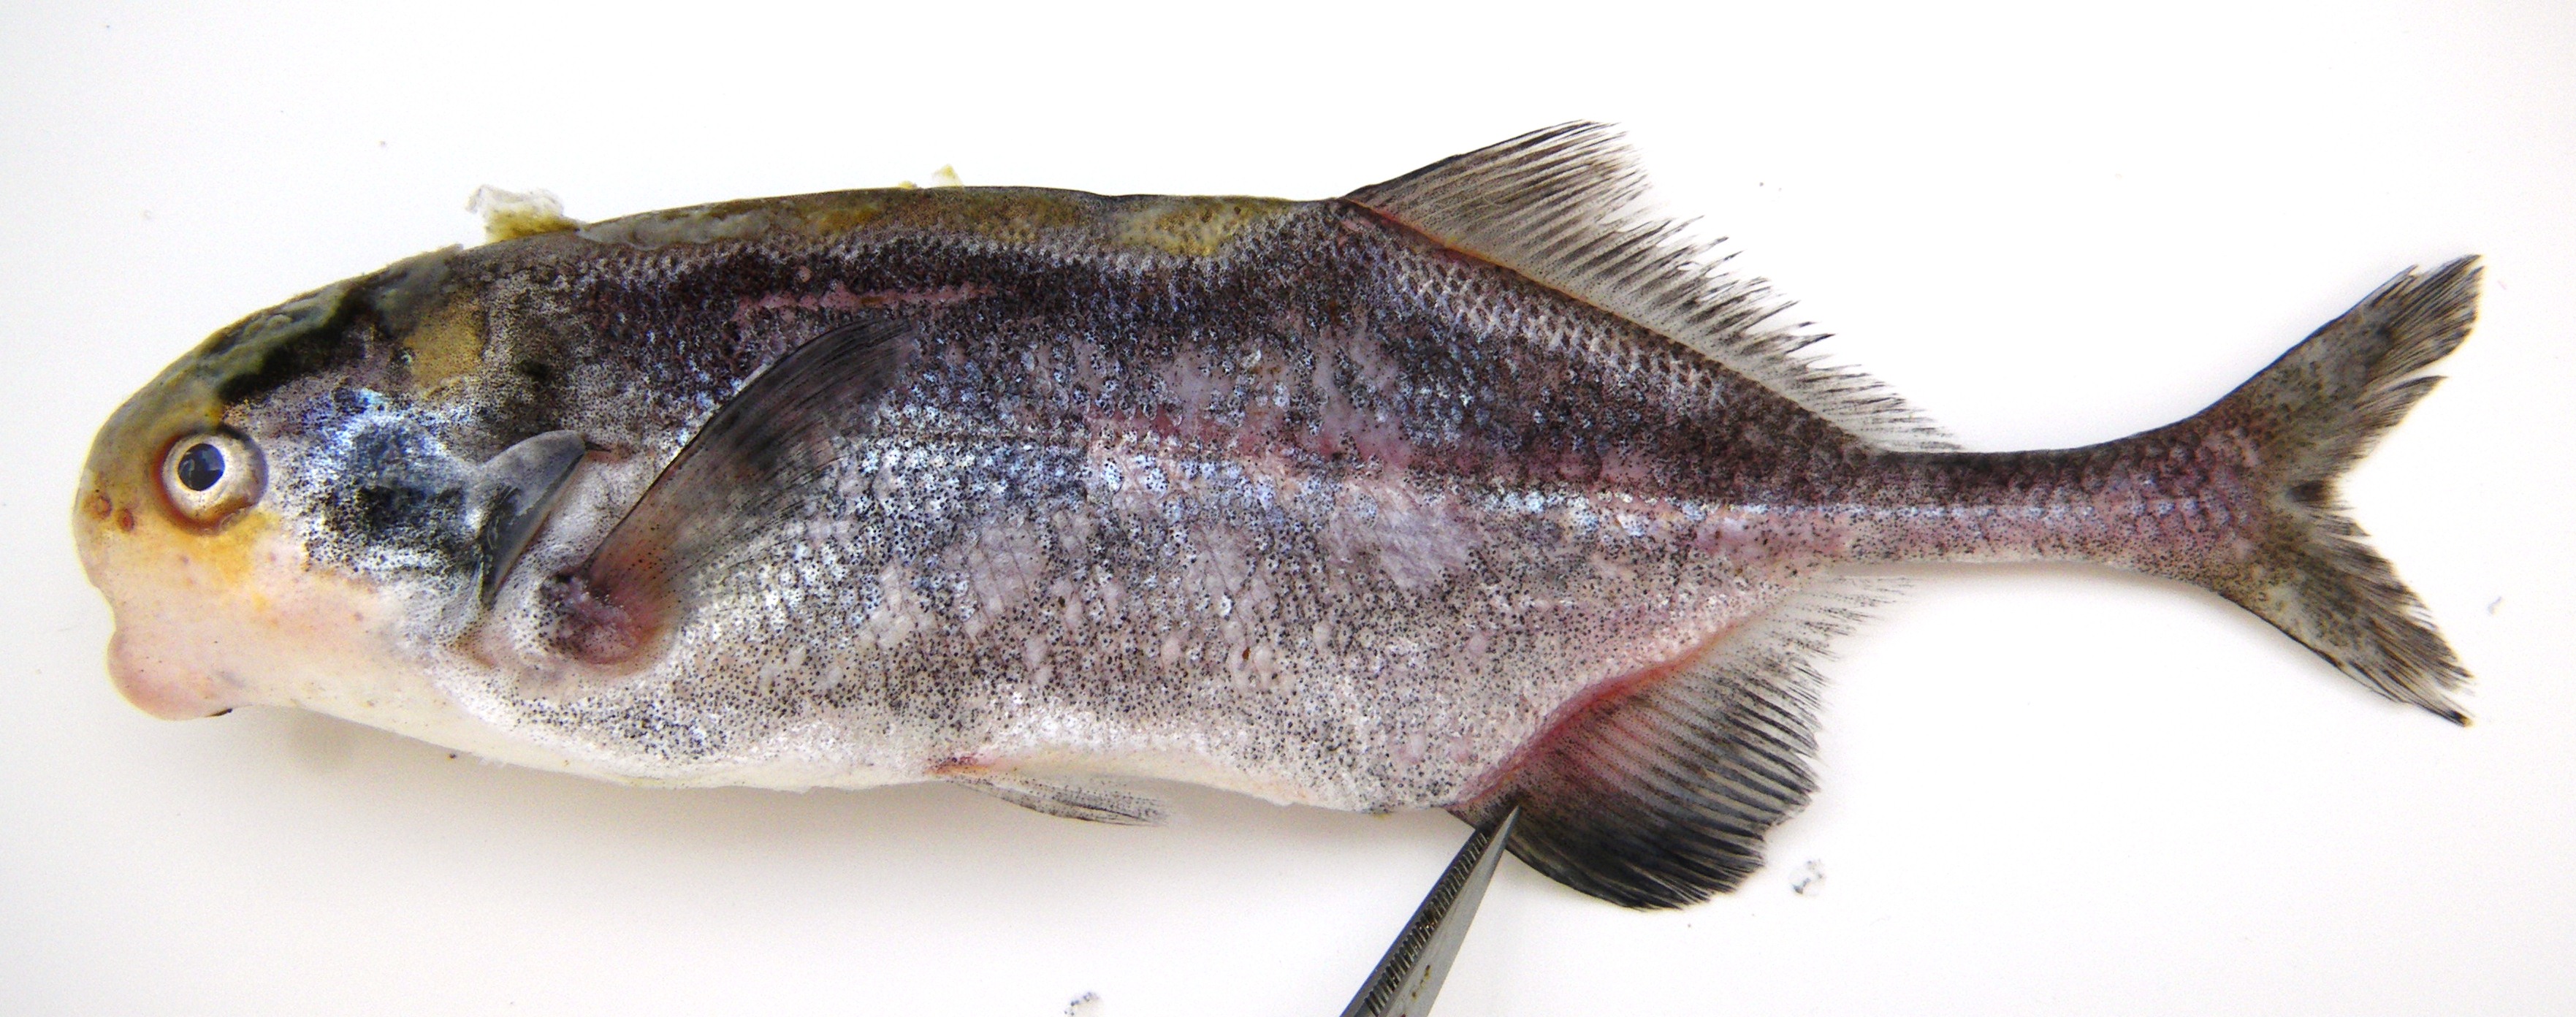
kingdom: Animalia
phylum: Chordata
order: Osteoglossiformes
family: Mormyridae
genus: Cyphomyrus
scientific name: Cyphomyrus discorhynchus
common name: Zambezi parrotfish
